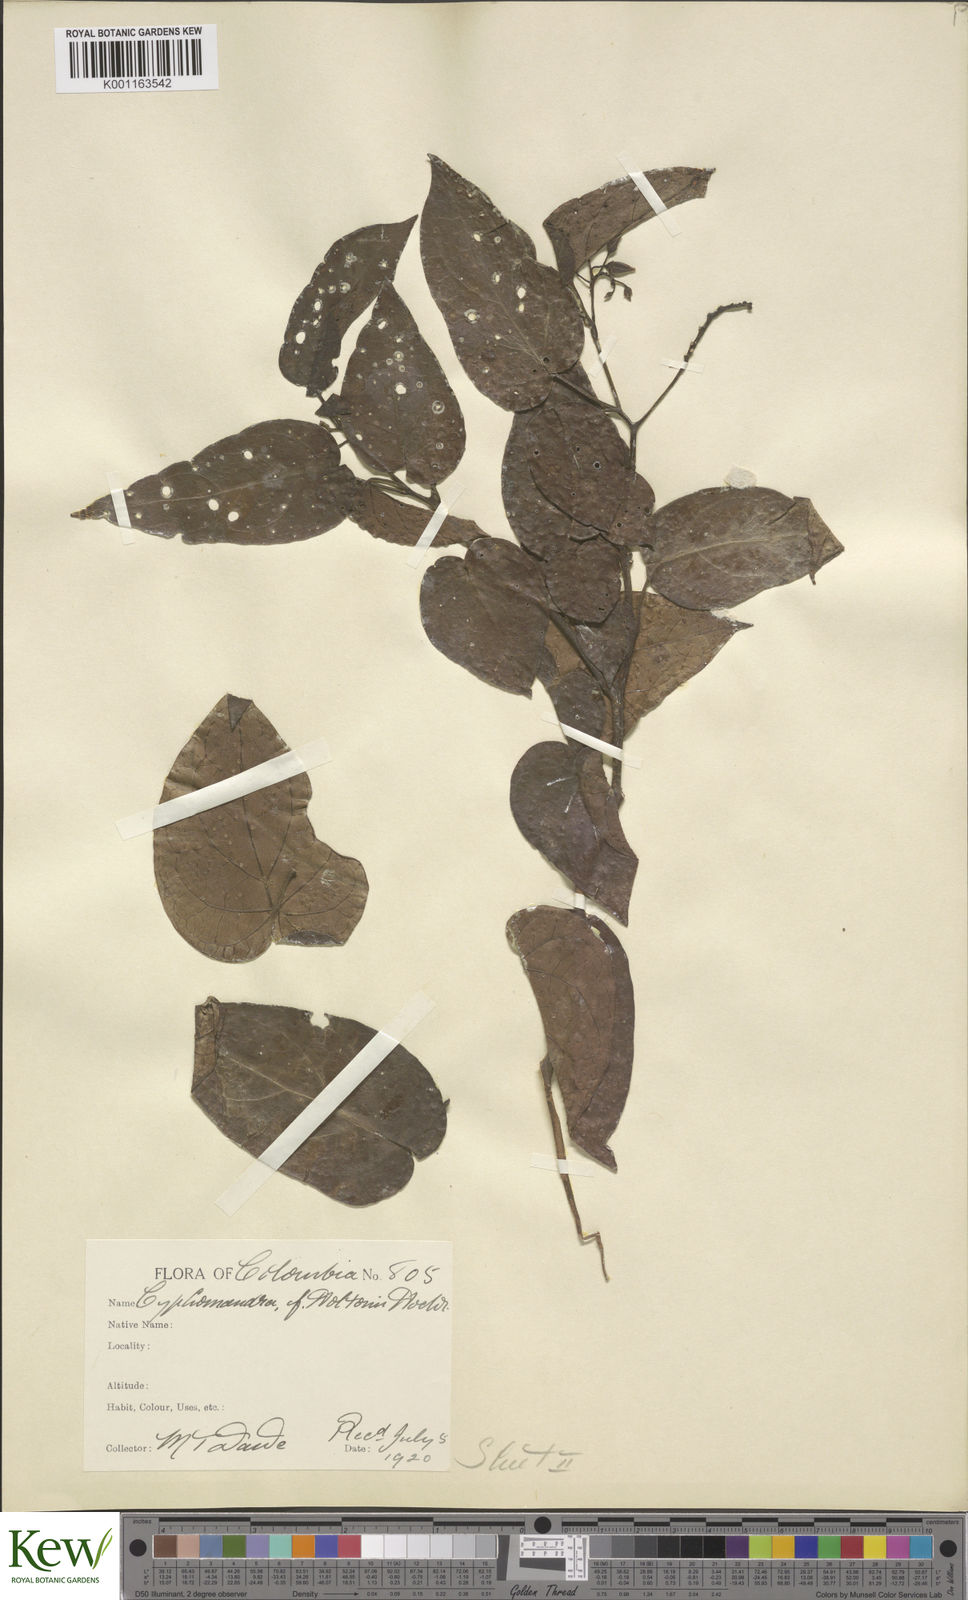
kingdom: Plantae
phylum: Tracheophyta
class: Magnoliopsida
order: Solanales
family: Solanaceae
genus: Solanum
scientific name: Solanum splendens
